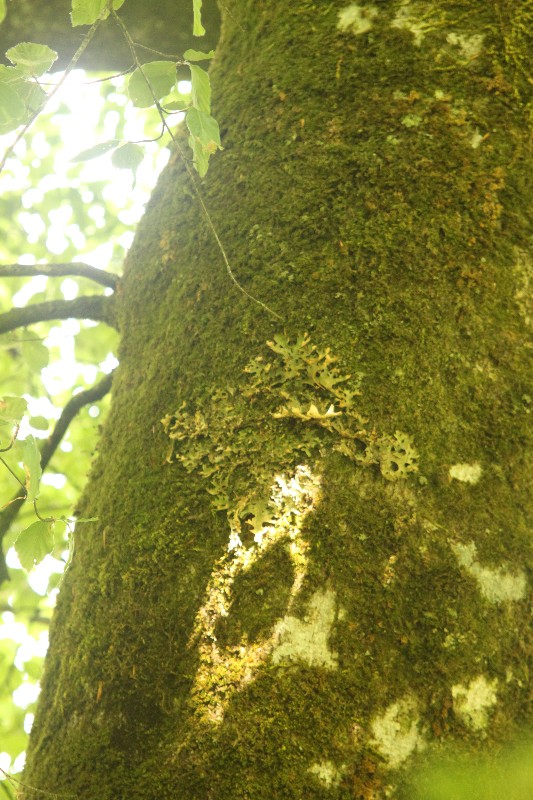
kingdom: Fungi
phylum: Ascomycota
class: Lecanoromycetes
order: Peltigerales
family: Lobariaceae
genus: Lobaria
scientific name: Lobaria pulmonaria
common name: almindelig lungelav
